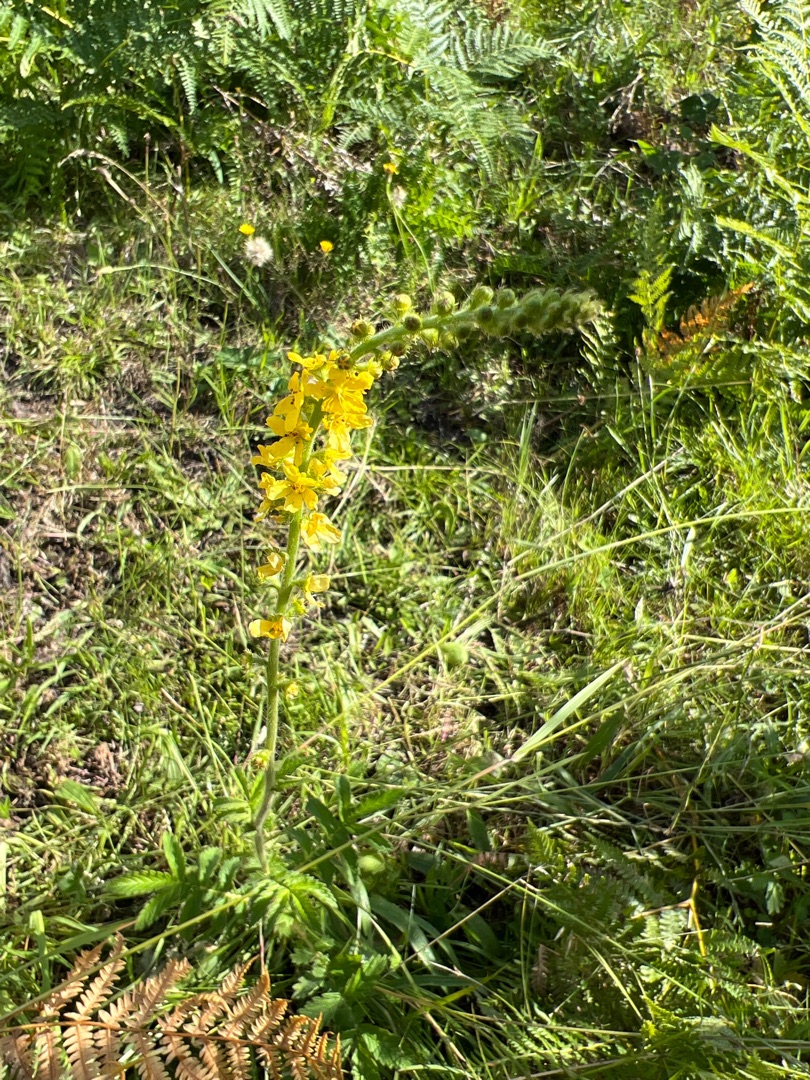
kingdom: Plantae
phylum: Tracheophyta
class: Magnoliopsida
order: Rosales
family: Rosaceae
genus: Agrimonia
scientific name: Agrimonia
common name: Agermåneslægten
